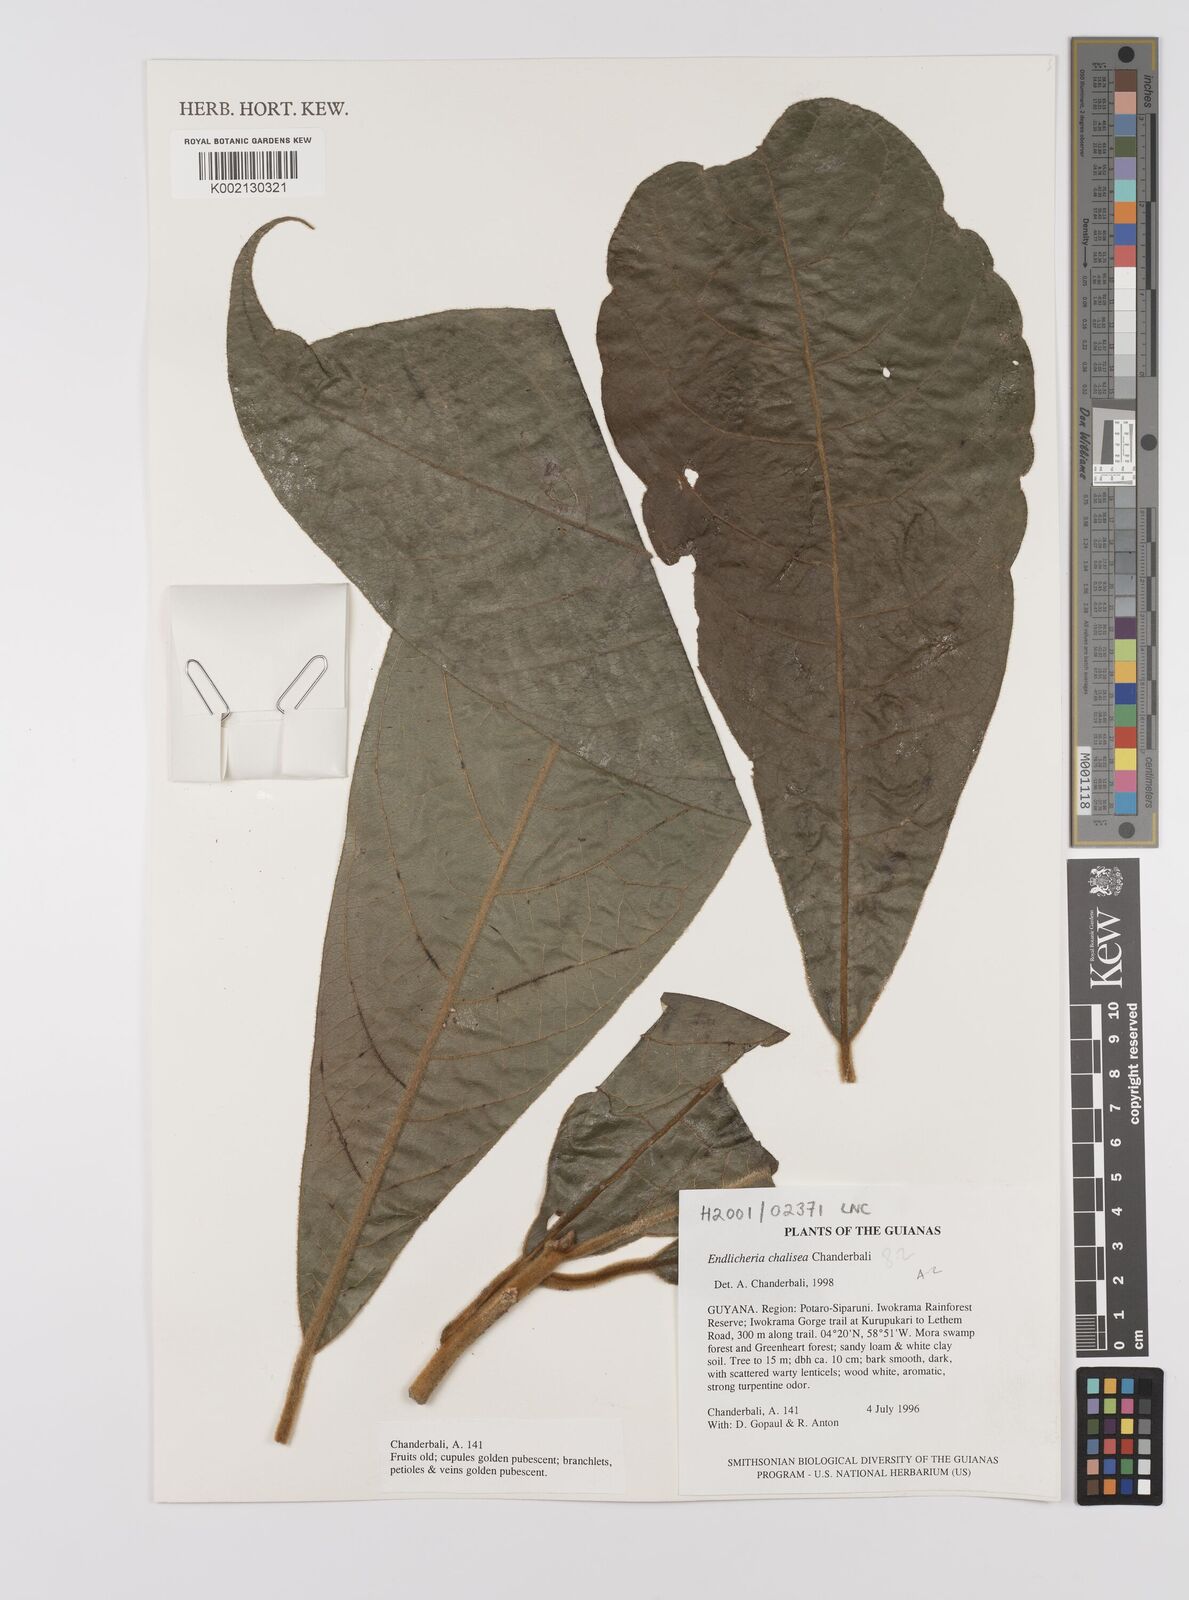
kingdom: Plantae
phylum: Tracheophyta
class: Magnoliopsida
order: Laurales
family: Lauraceae
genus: Endlicheria
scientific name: Endlicheria chalisea
